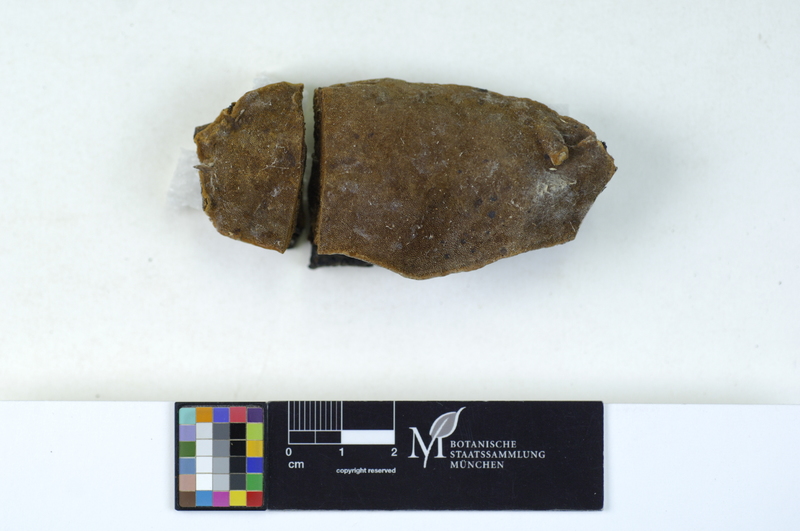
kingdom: Plantae
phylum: Tracheophyta
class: Magnoliopsida
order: Fagales
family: Betulaceae
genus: Betula
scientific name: Betula pubescens
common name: Downy birch
